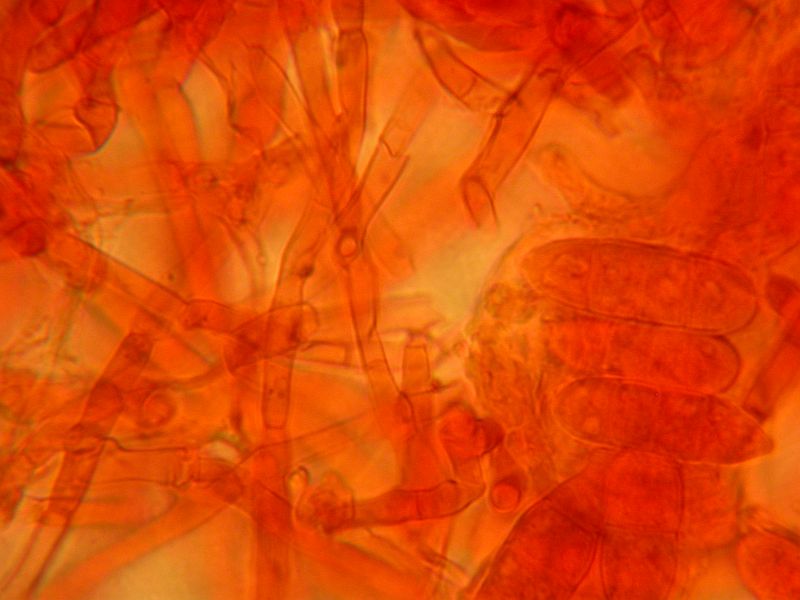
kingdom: Fungi
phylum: Ascomycota
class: Sordariomycetes
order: Hypocreales
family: Hypocreaceae
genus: Hypomyces
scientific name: Hypomyces rosellus
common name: rosa snylteskorpe
